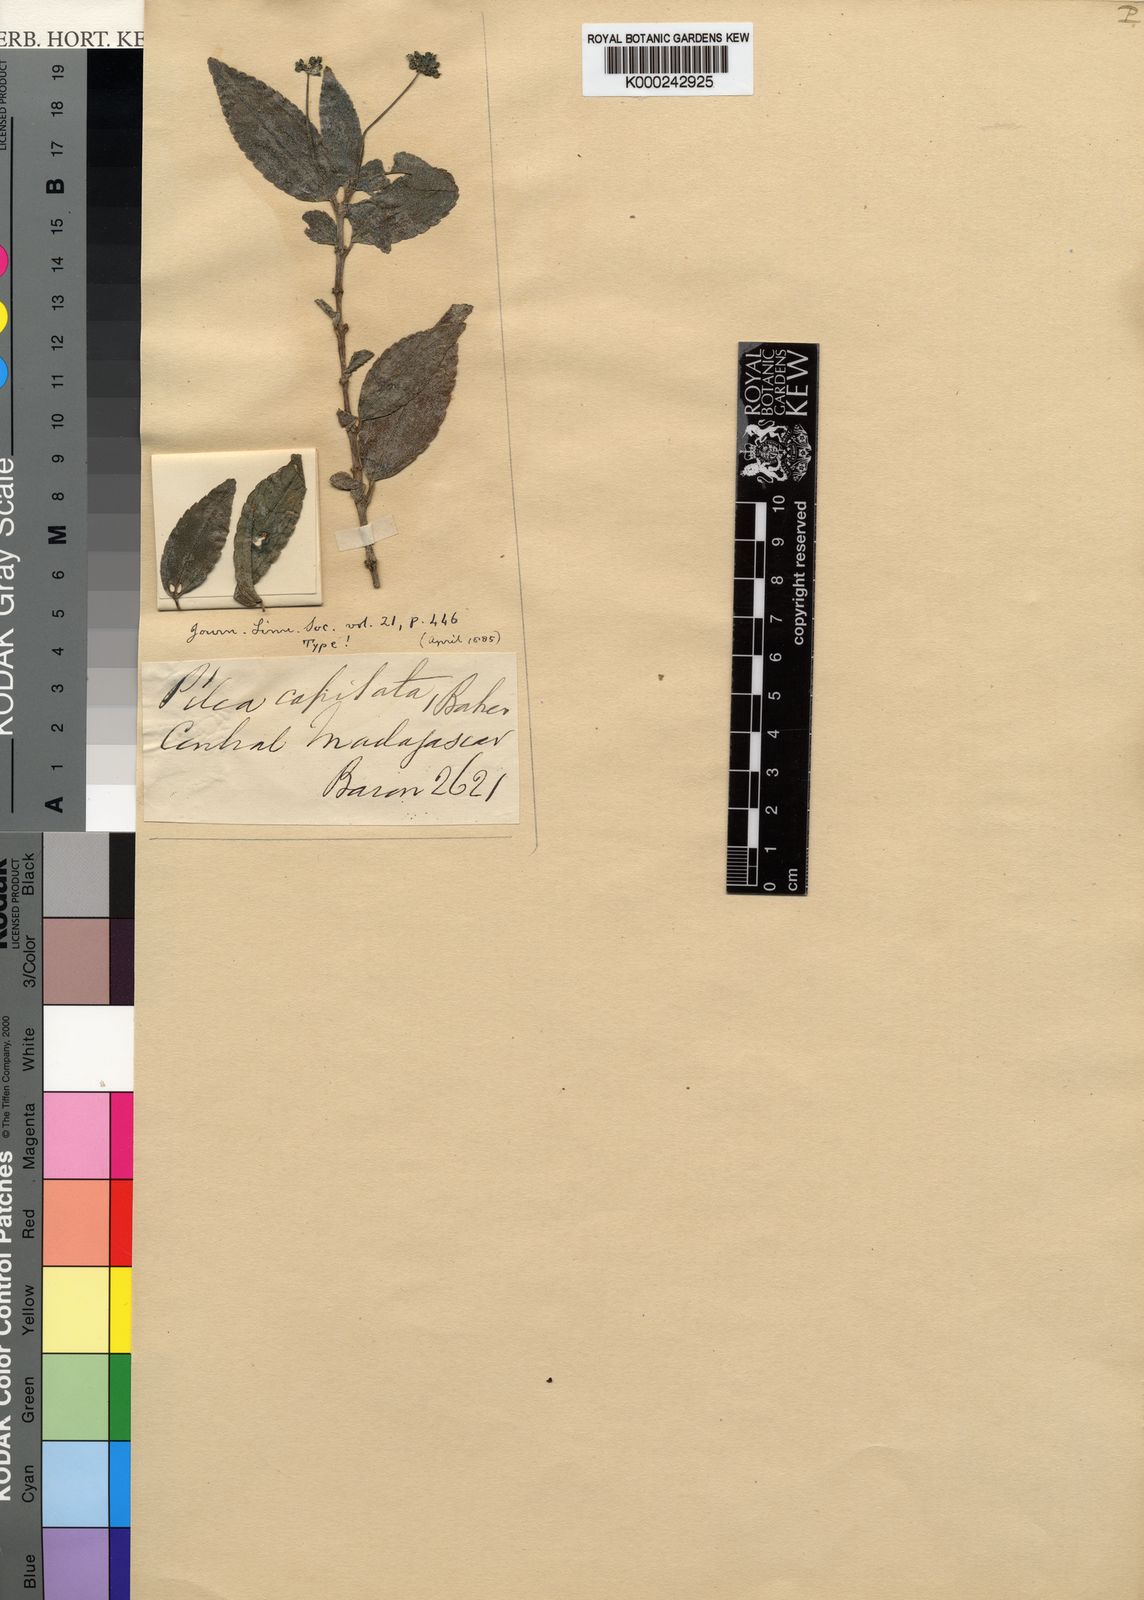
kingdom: Plantae
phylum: Tracheophyta
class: Magnoliopsida
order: Rosales
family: Urticaceae
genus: Pilea
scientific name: Pilea capitata
